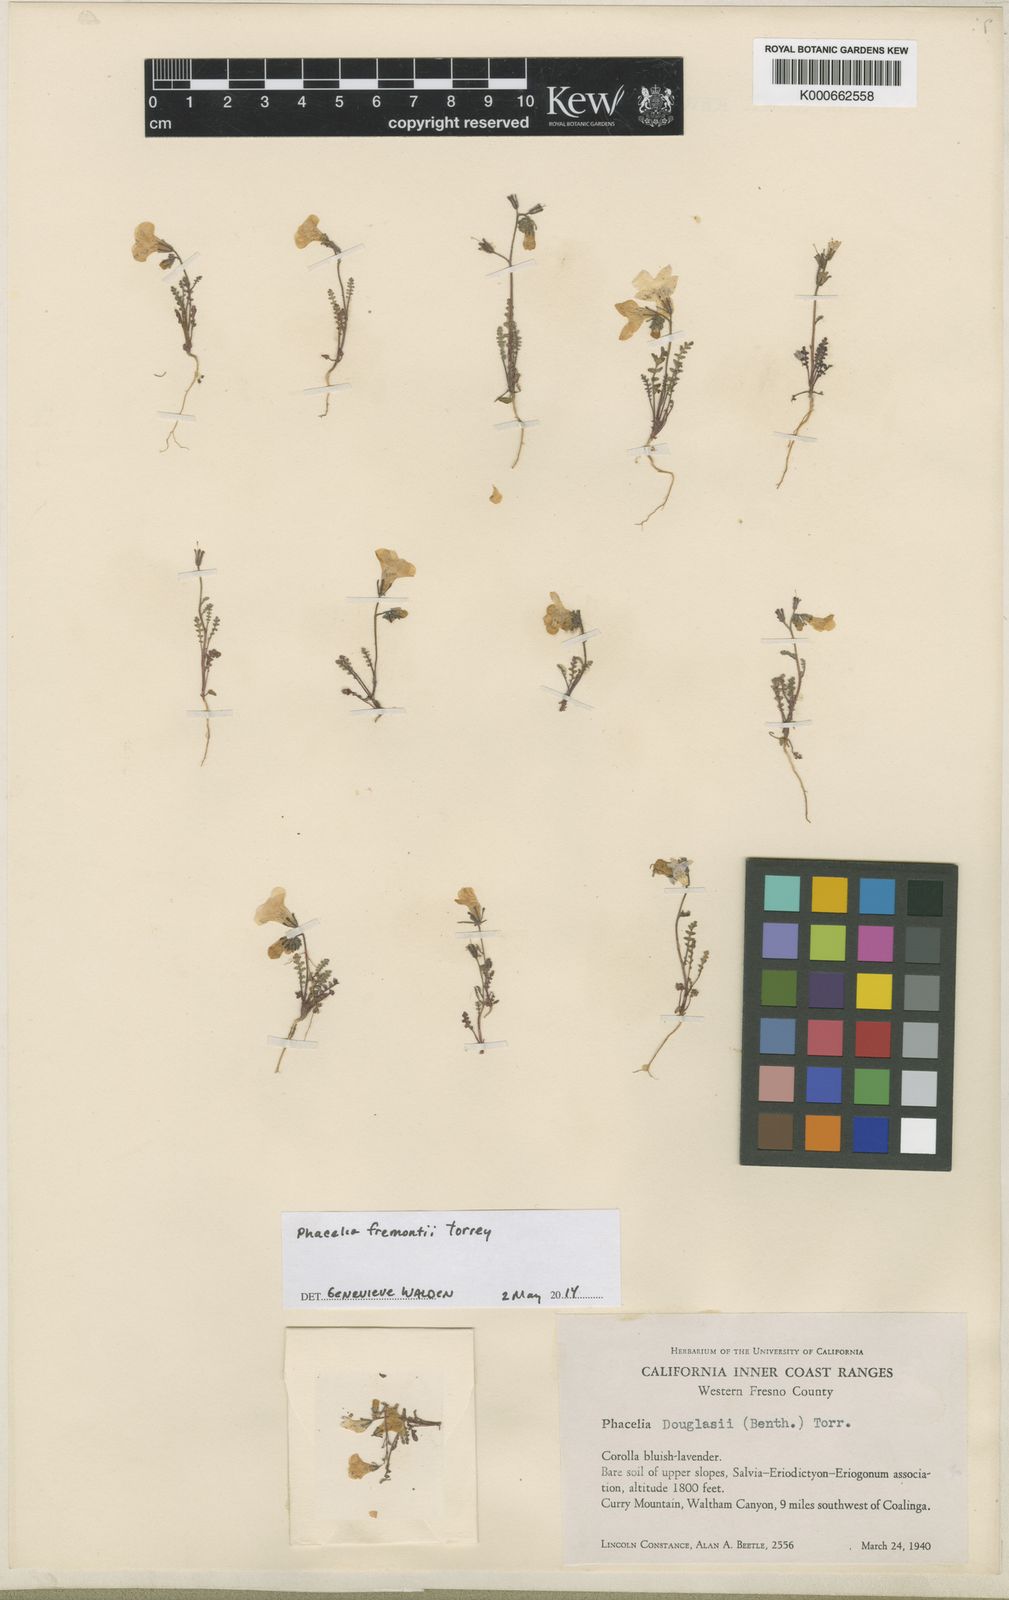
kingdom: Plantae
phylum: Tracheophyta
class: Magnoliopsida
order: Boraginales
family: Hydrophyllaceae
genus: Phacelia
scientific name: Phacelia fremontii
